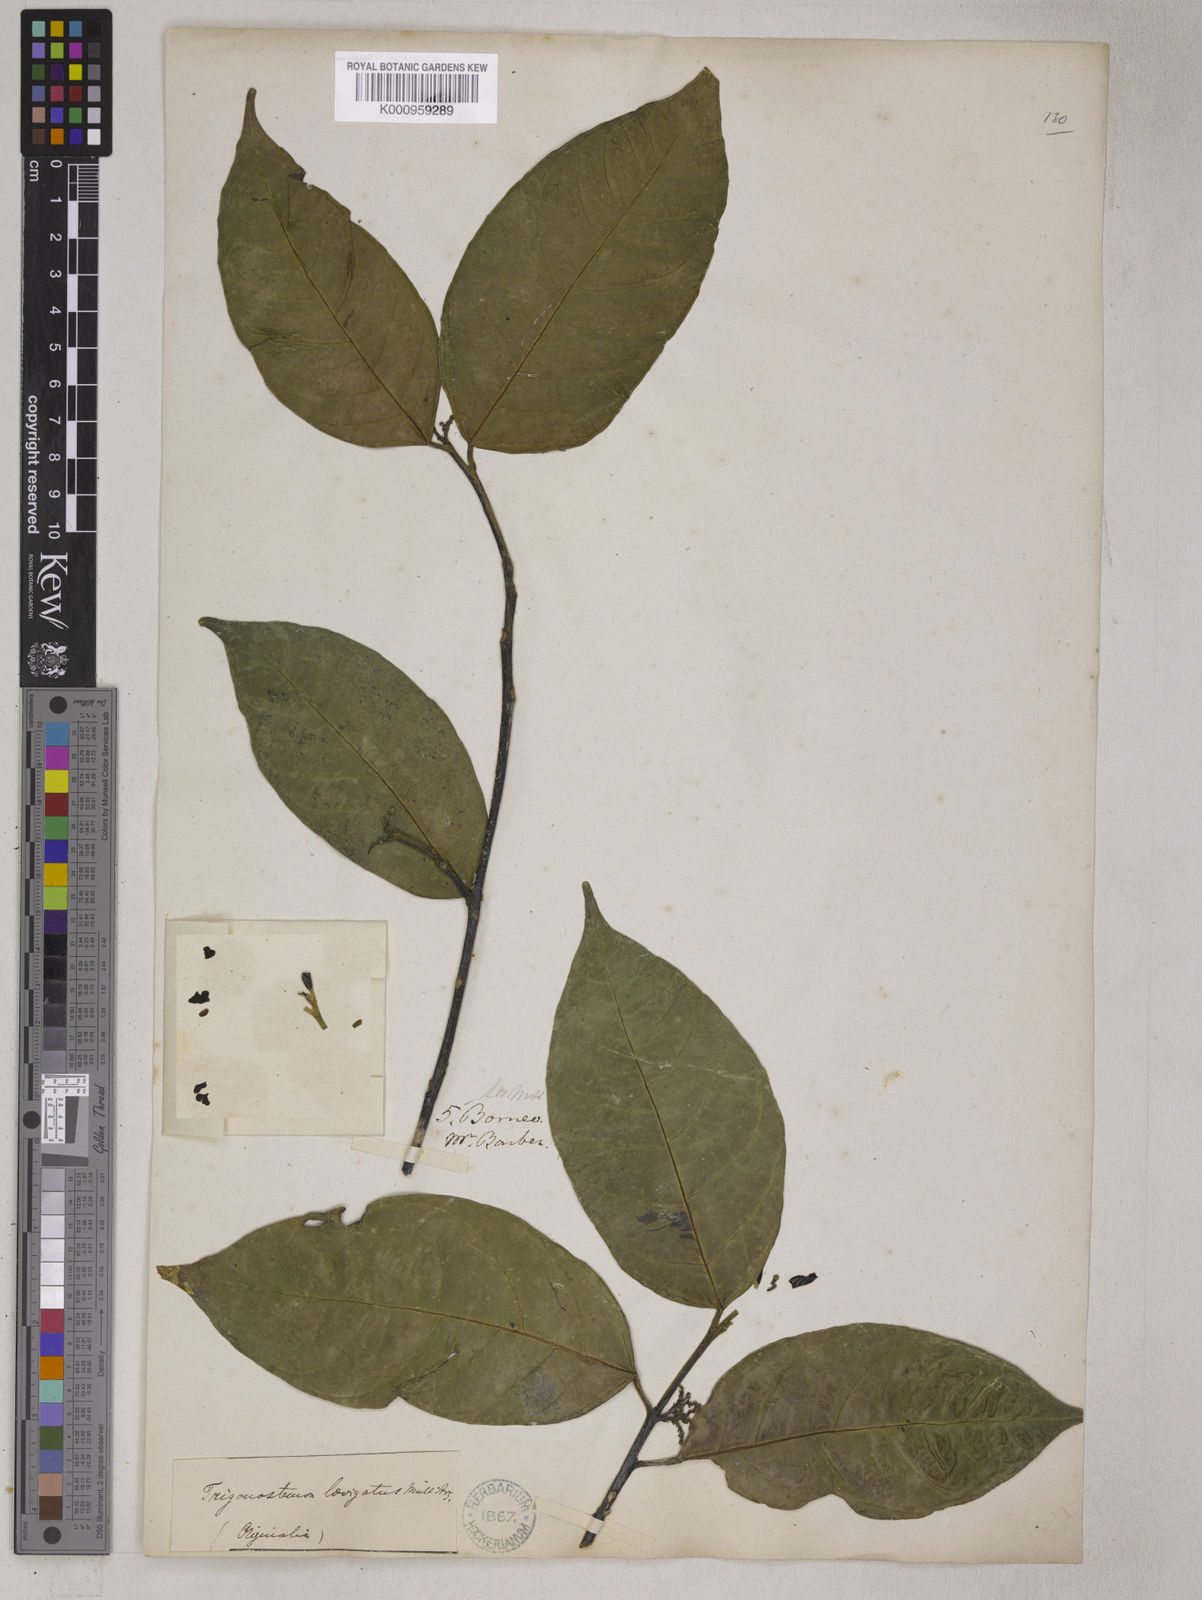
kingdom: Plantae
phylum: Tracheophyta
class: Magnoliopsida
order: Malpighiales
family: Euphorbiaceae
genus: Trigonostemon
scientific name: Trigonostemon laevigatus
